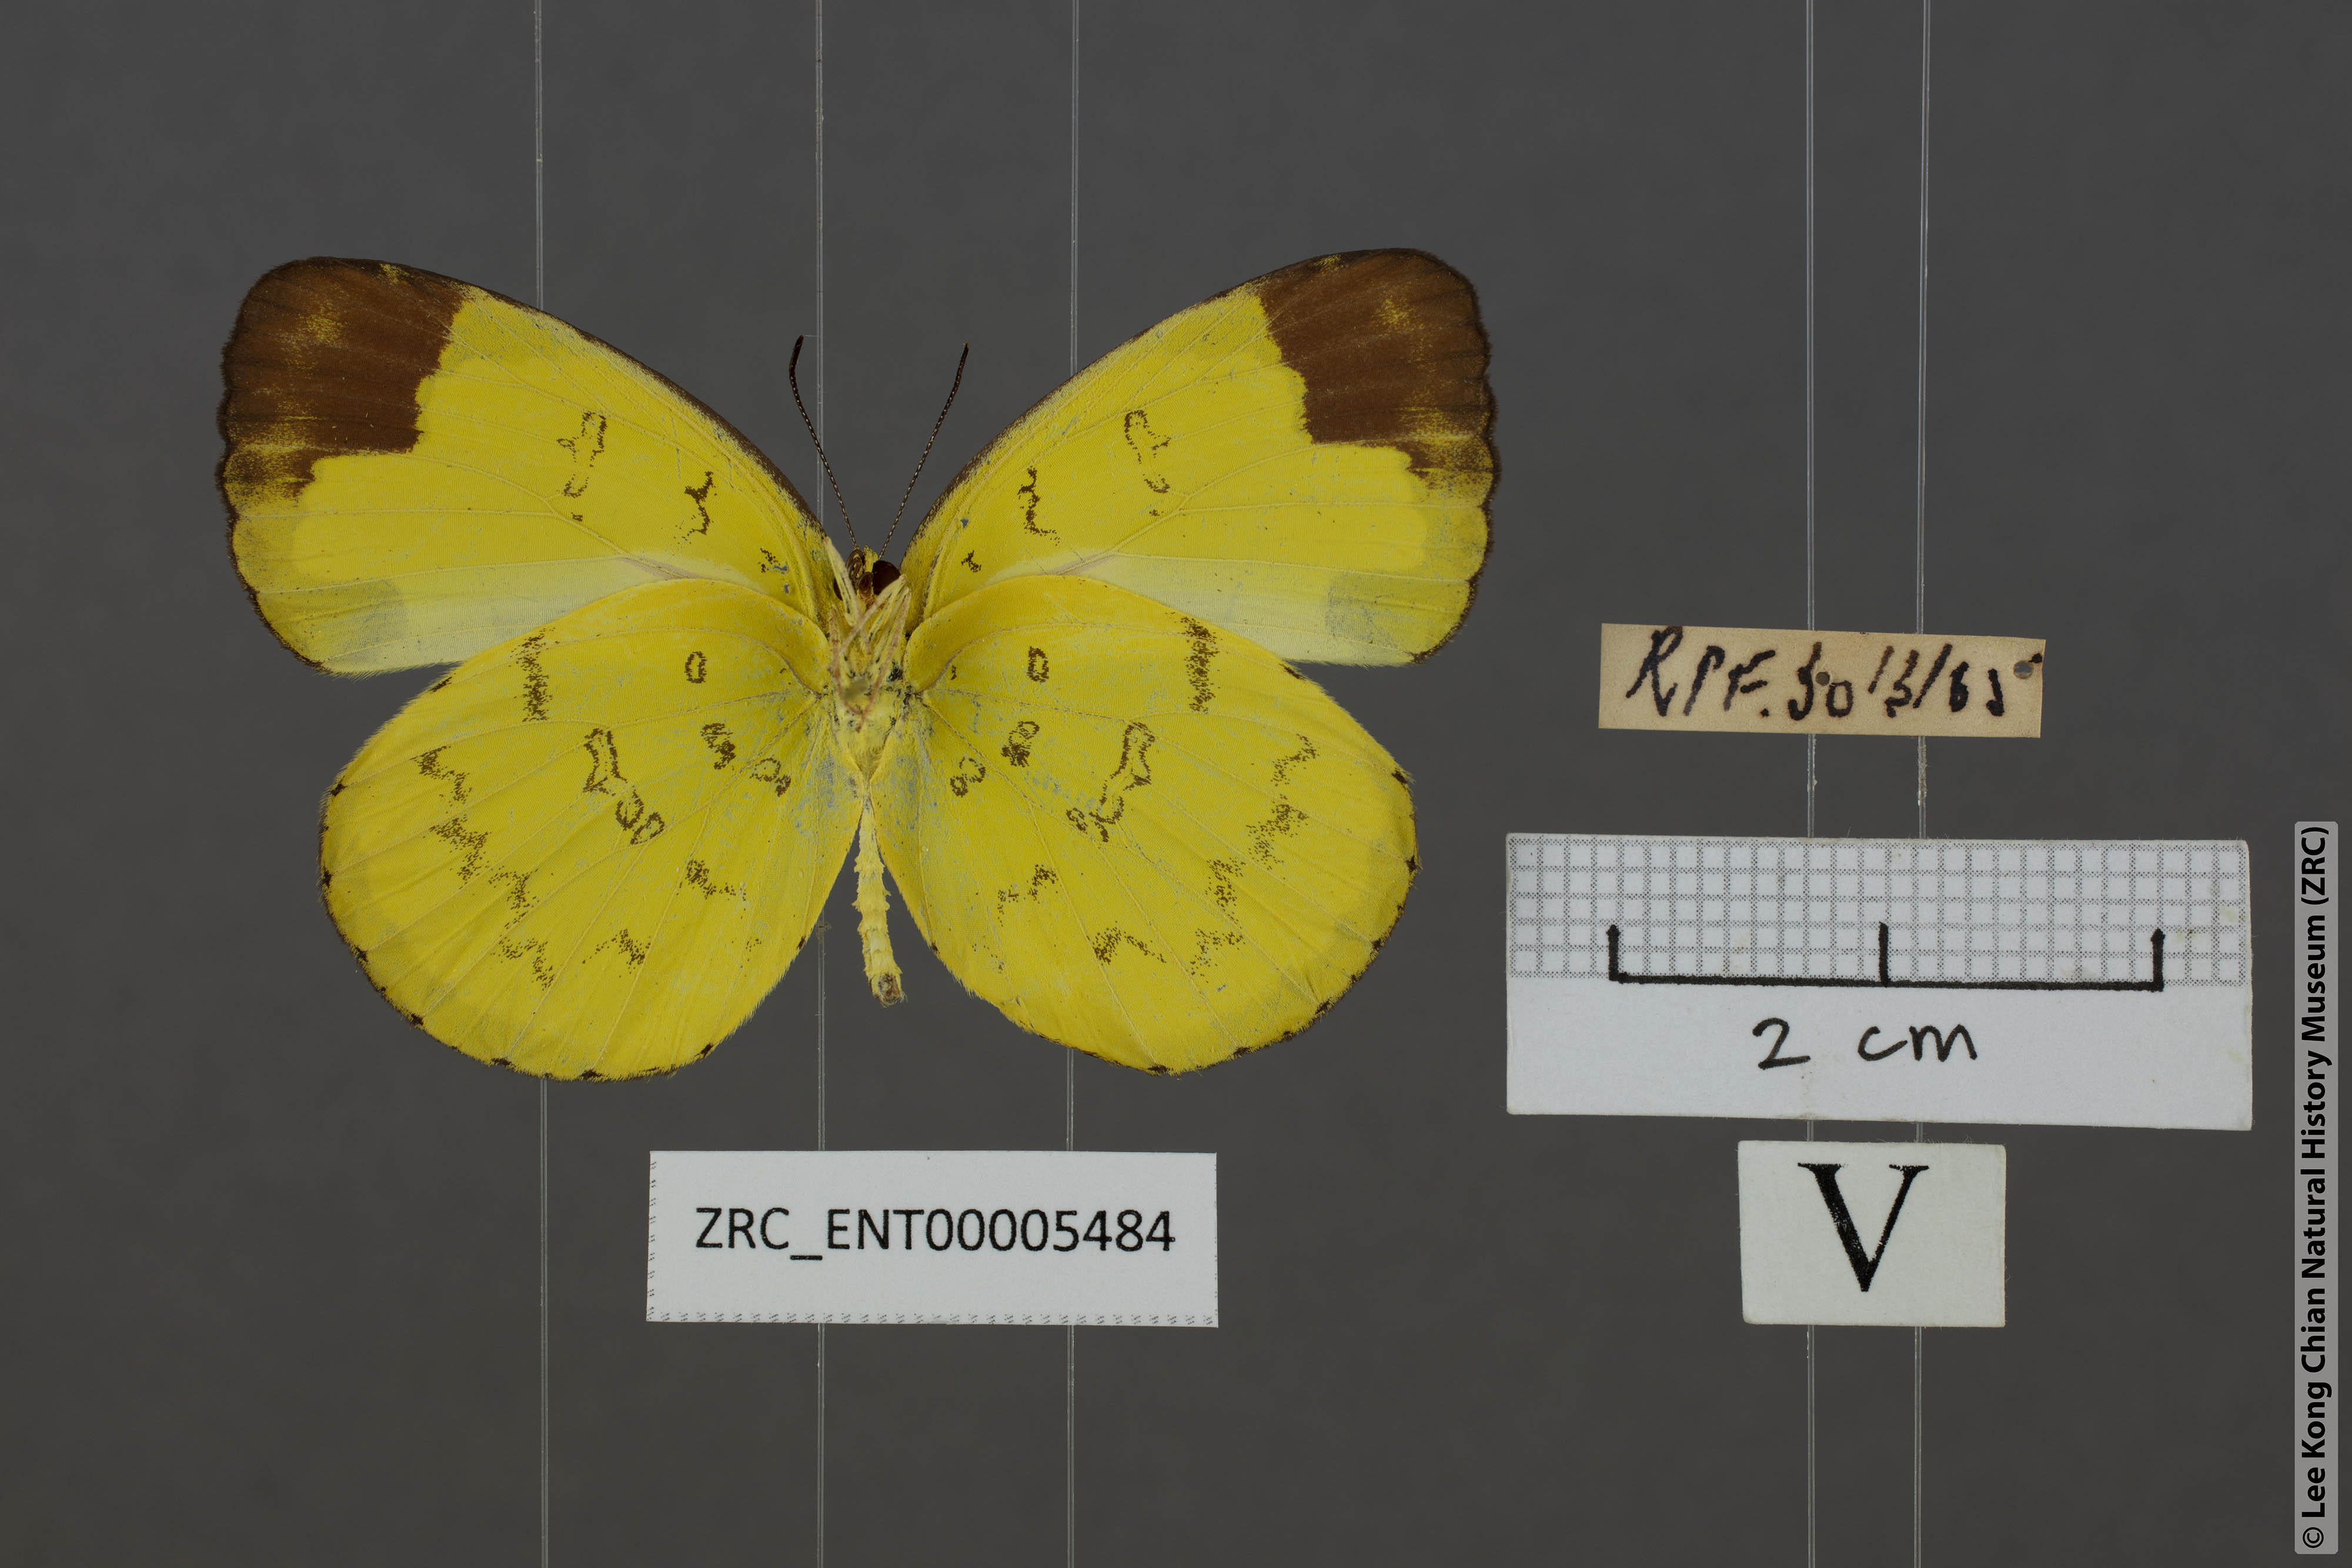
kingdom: Animalia
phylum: Arthropoda
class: Insecta
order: Lepidoptera
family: Pieridae
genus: Eurema
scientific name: Eurema simulatrix
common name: Hill grass yellow
